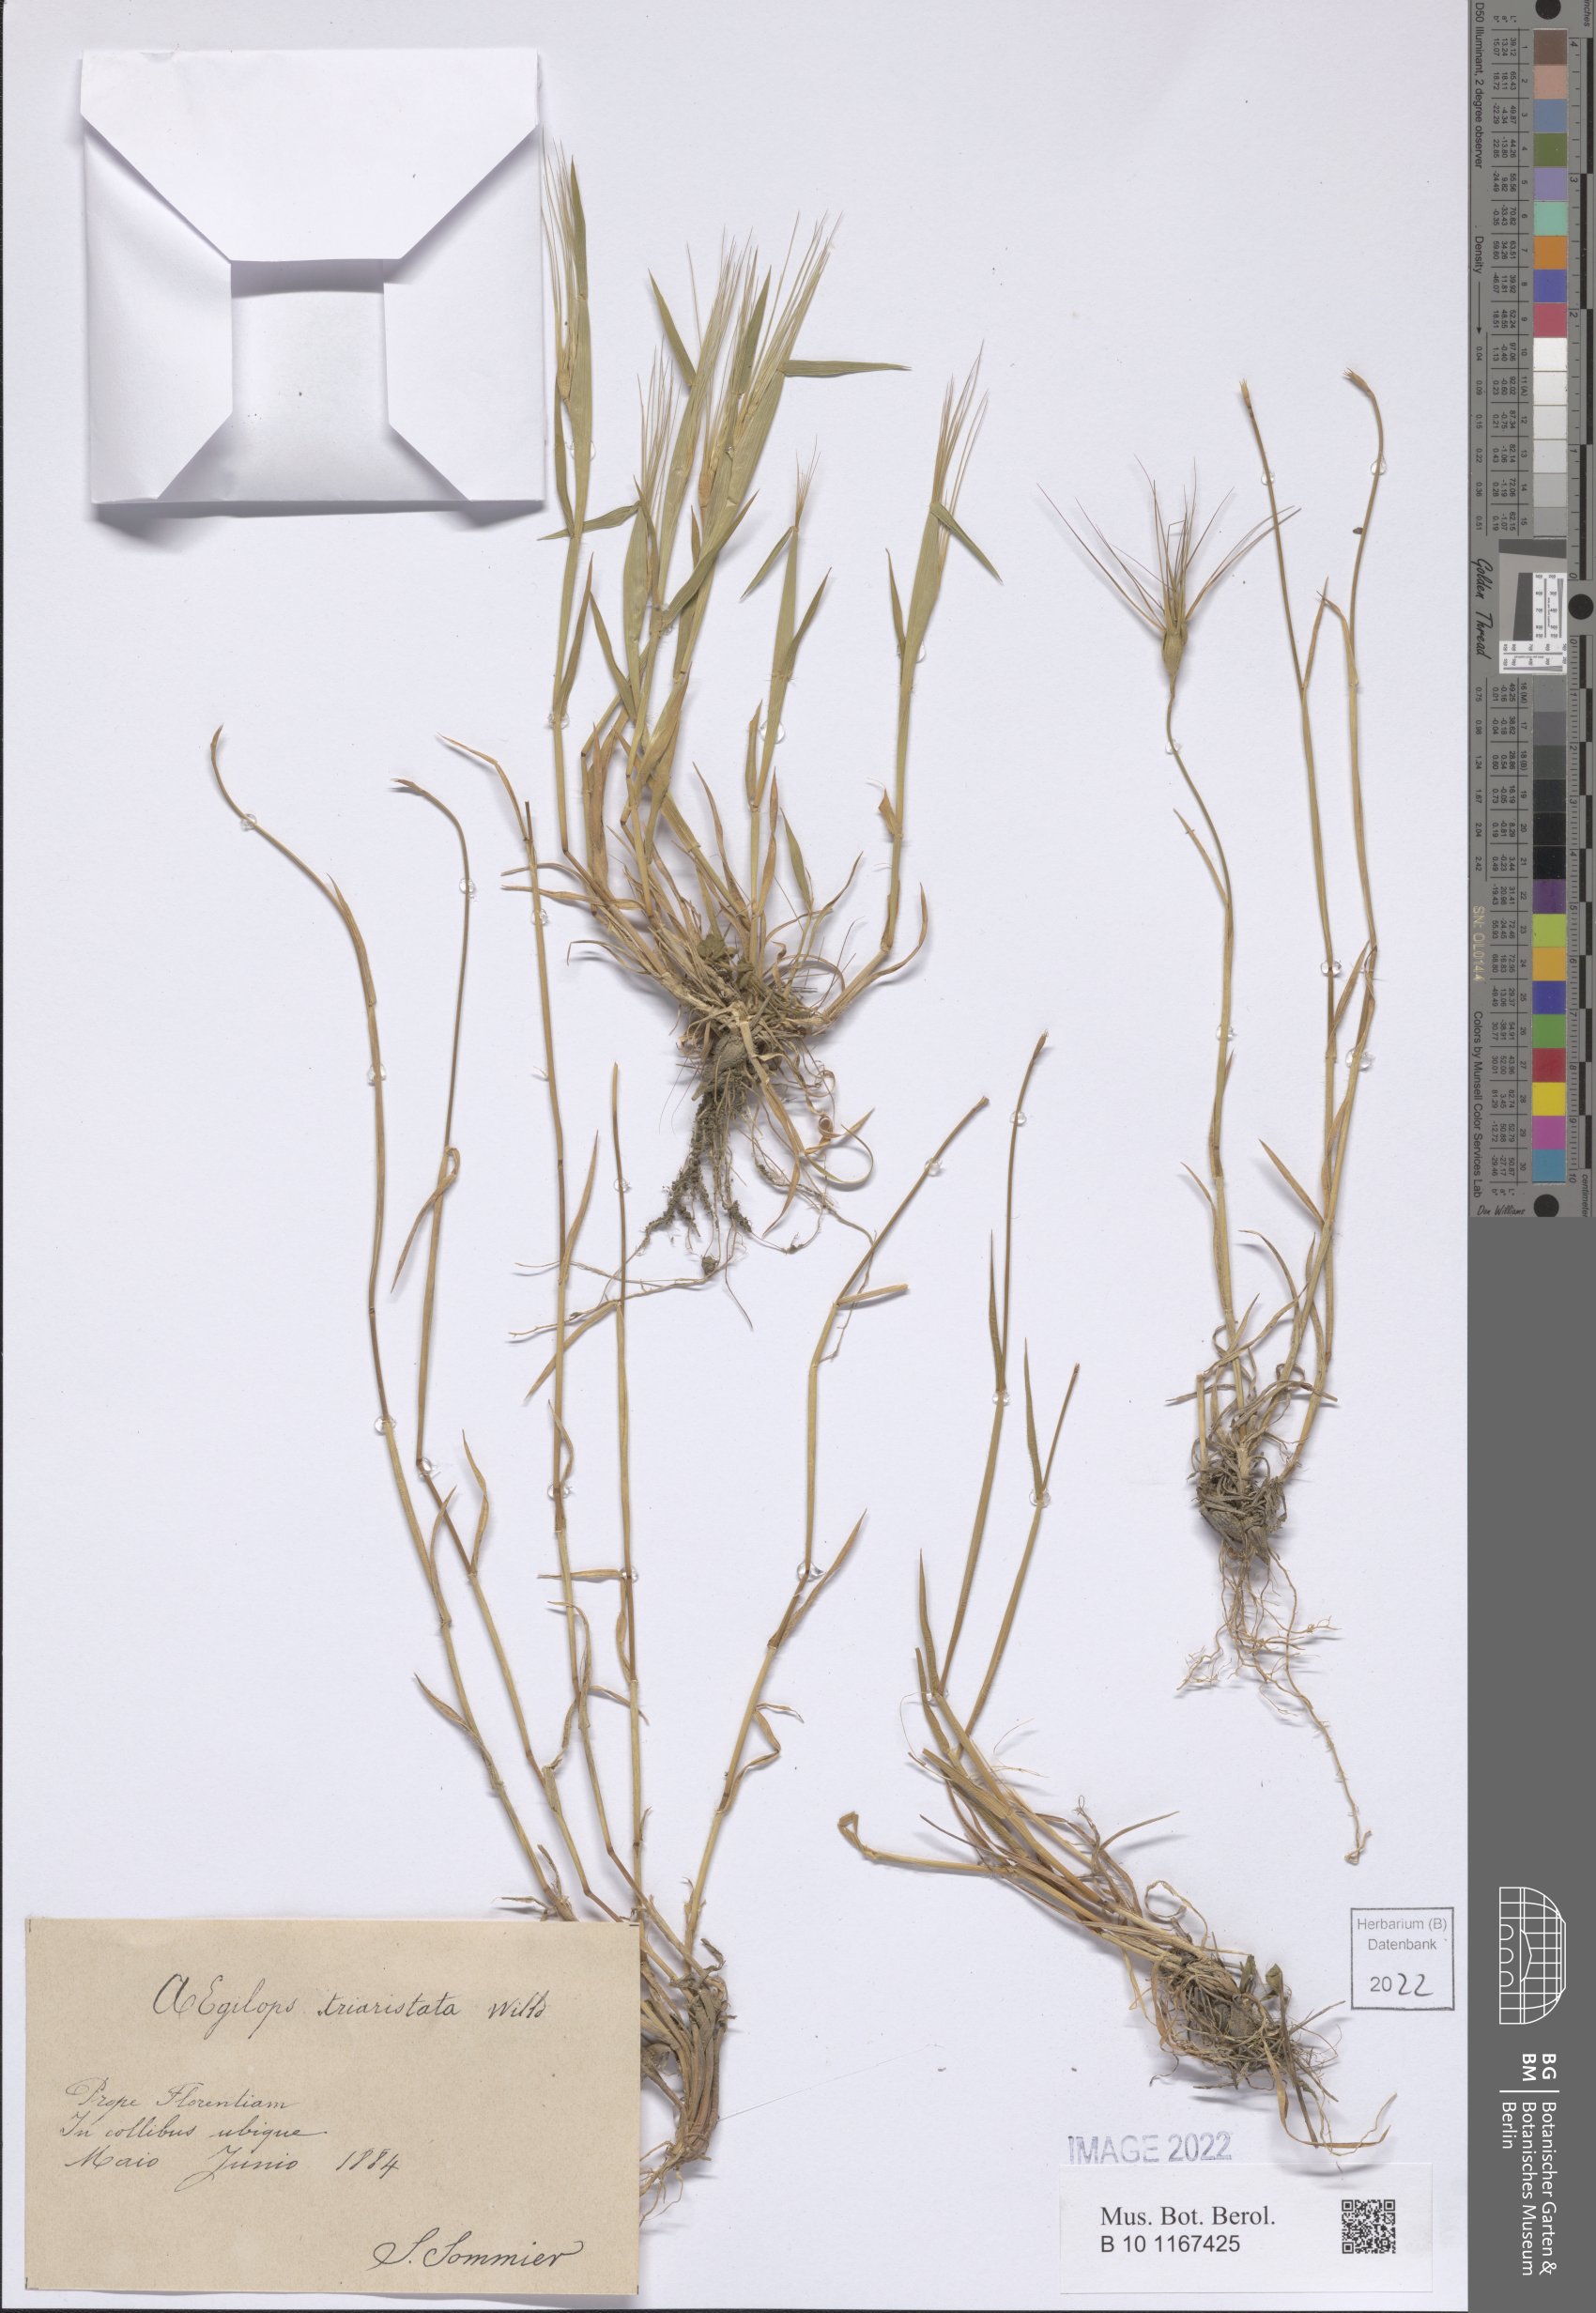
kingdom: Plantae
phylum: Tracheophyta
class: Liliopsida
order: Poales
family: Poaceae
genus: Aegilops
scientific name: Aegilops neglecta
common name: Three-awn goat grass
